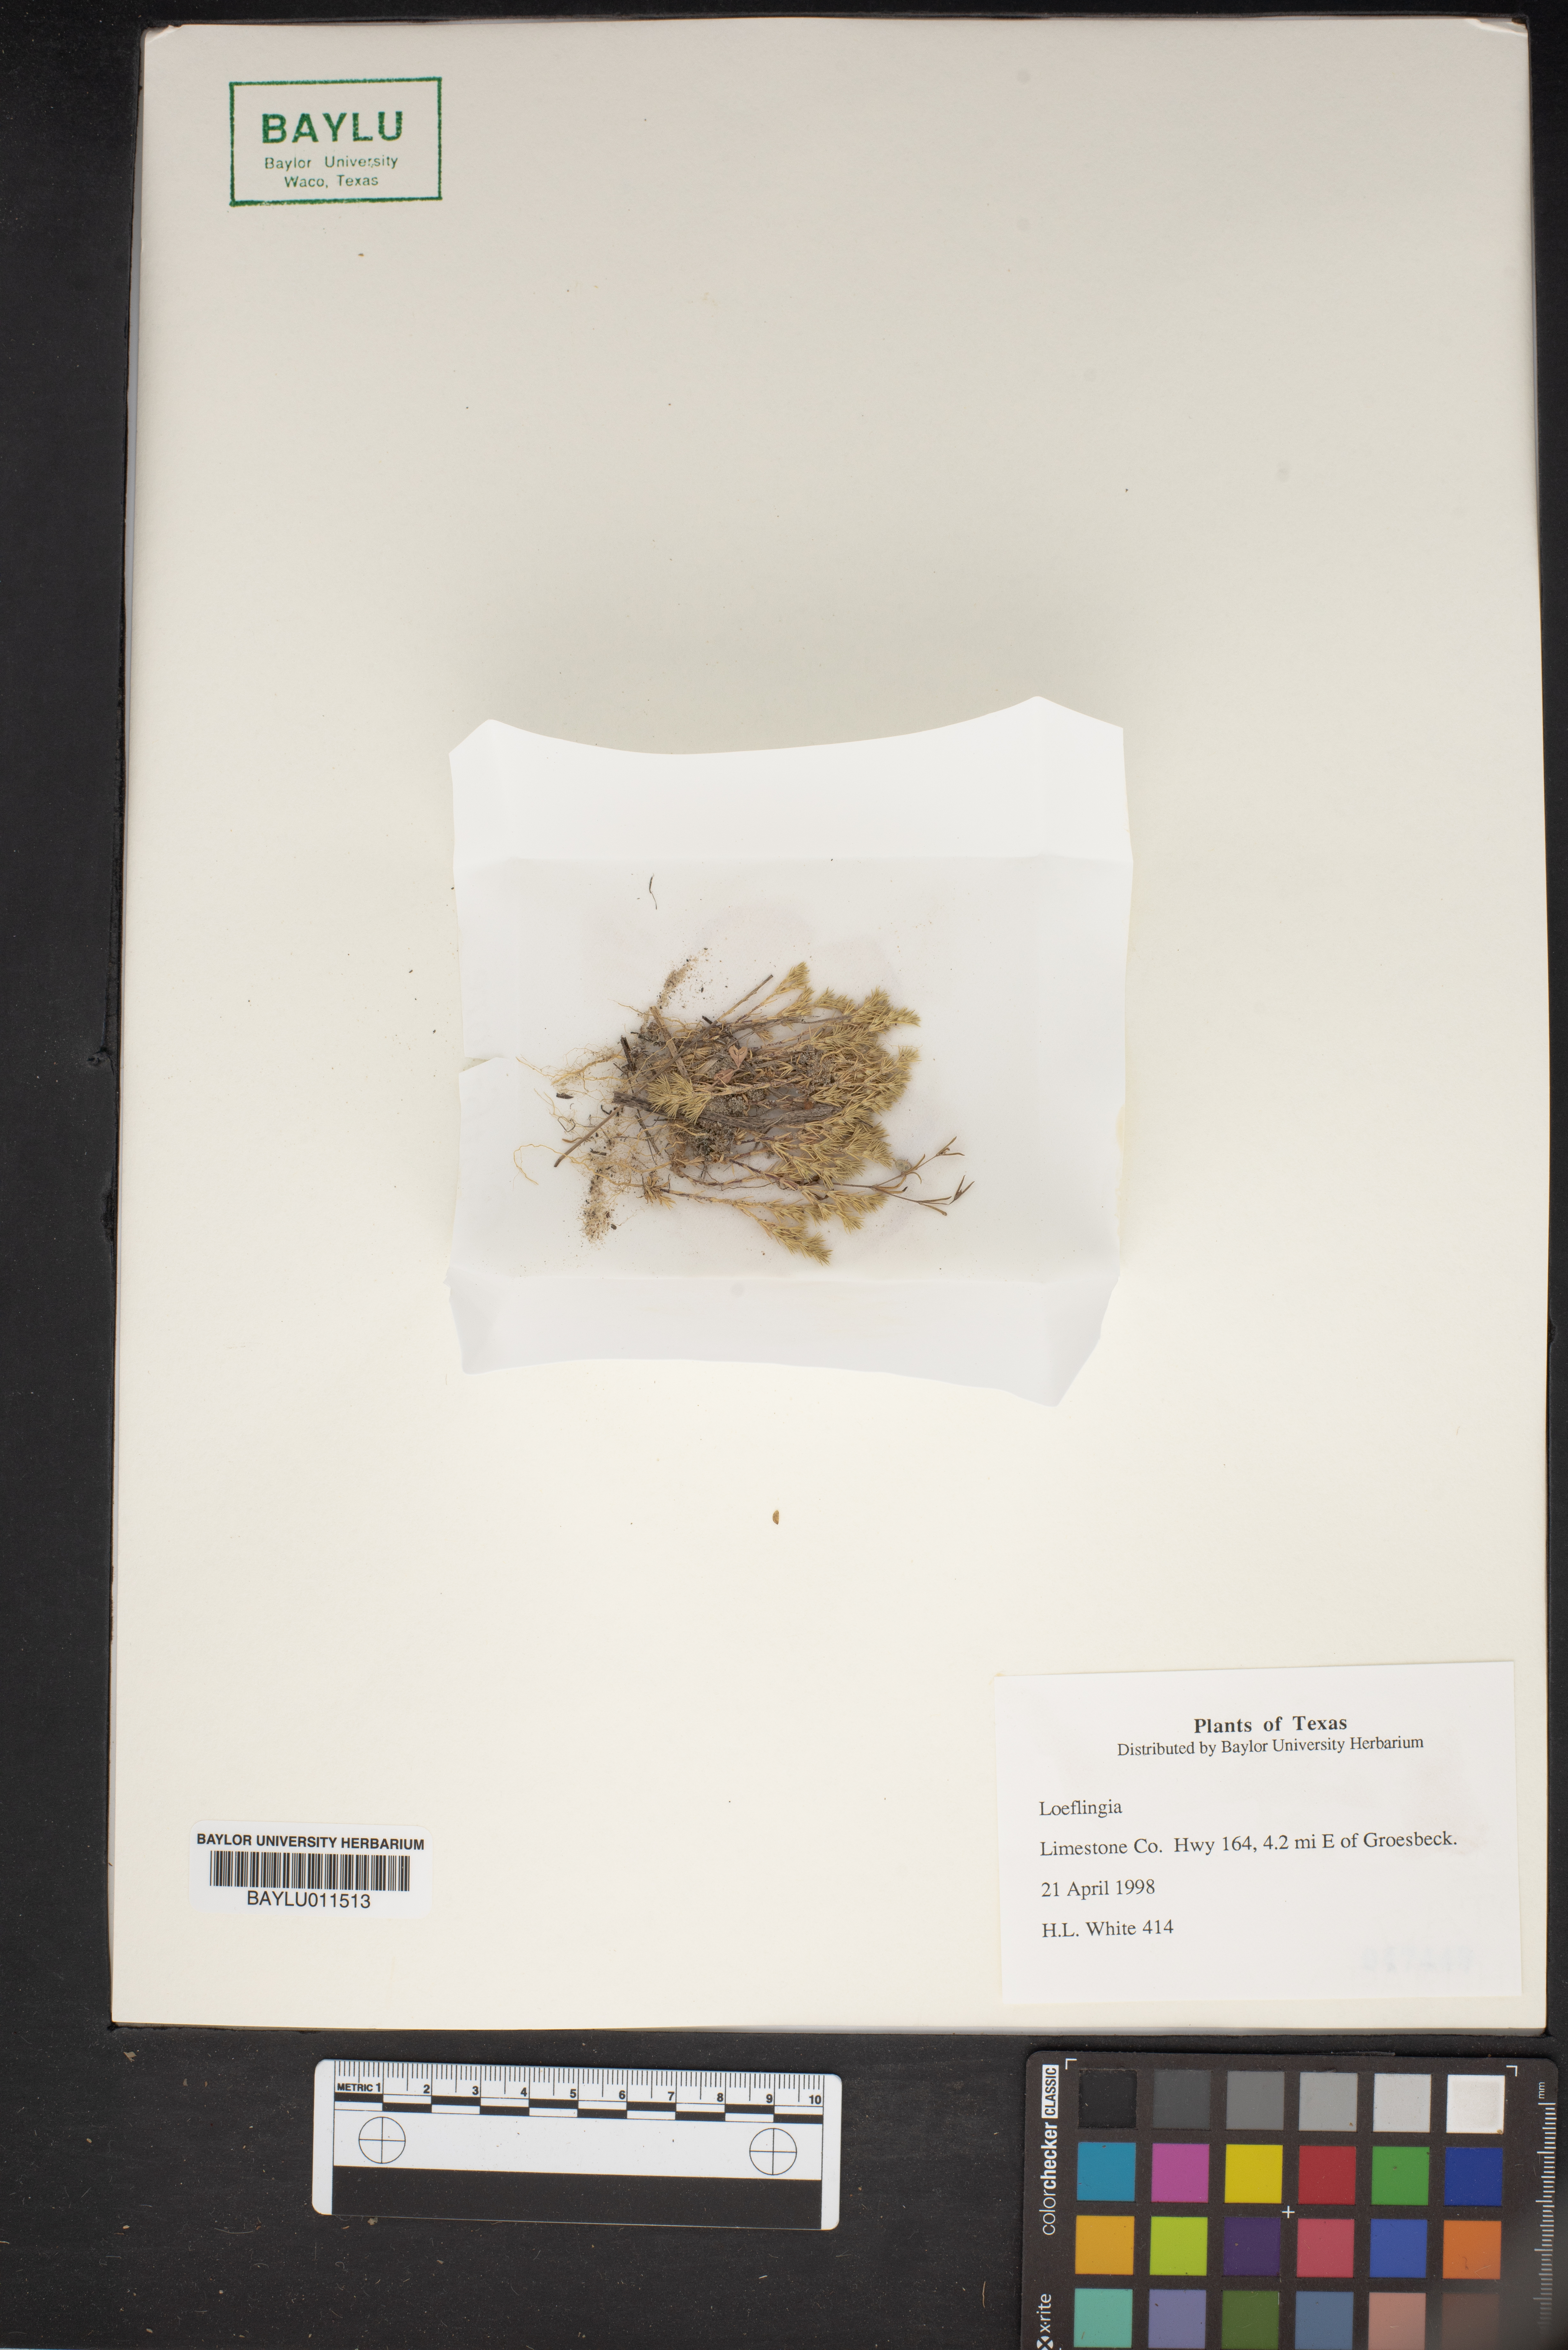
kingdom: Plantae
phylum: Tracheophyta
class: Magnoliopsida
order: Caryophyllales
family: Caryophyllaceae
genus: Loeflingia
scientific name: Loeflingia
